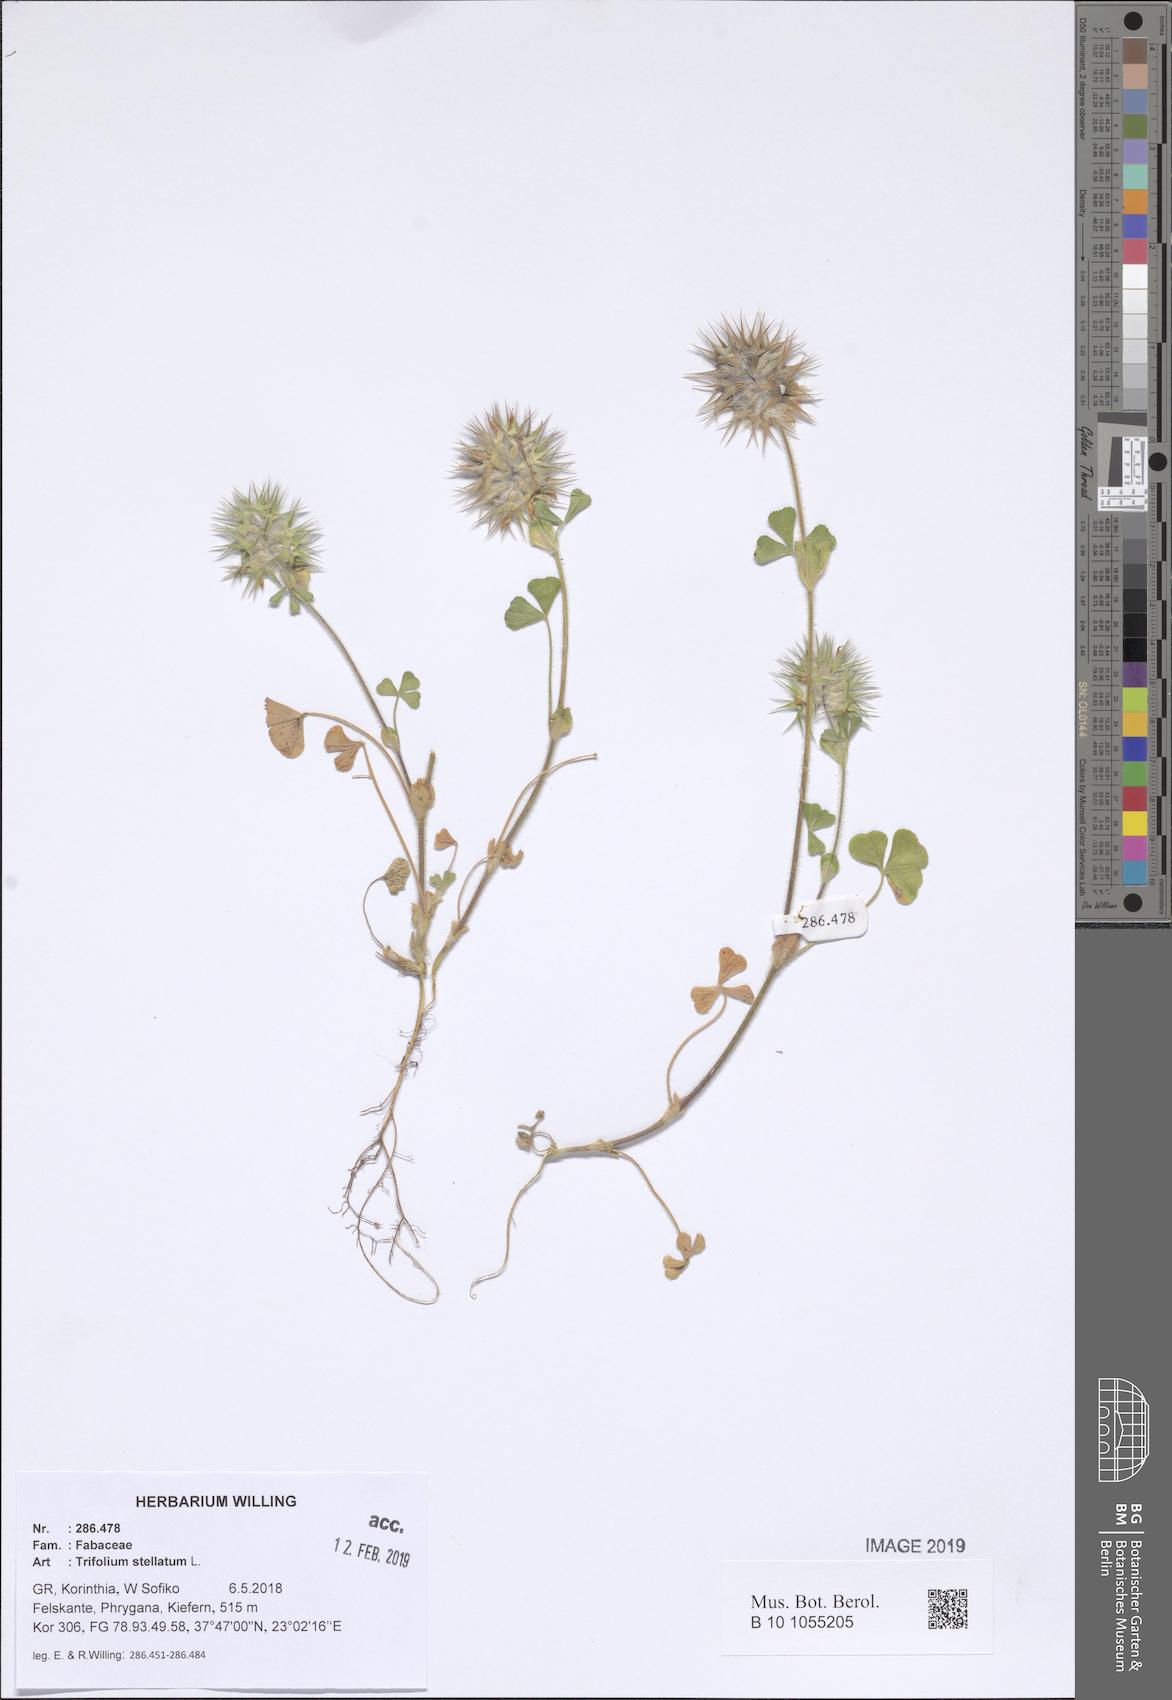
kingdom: Plantae
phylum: Tracheophyta
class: Magnoliopsida
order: Fabales
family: Fabaceae
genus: Trifolium
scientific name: Trifolium stellatum
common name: Starry clover
